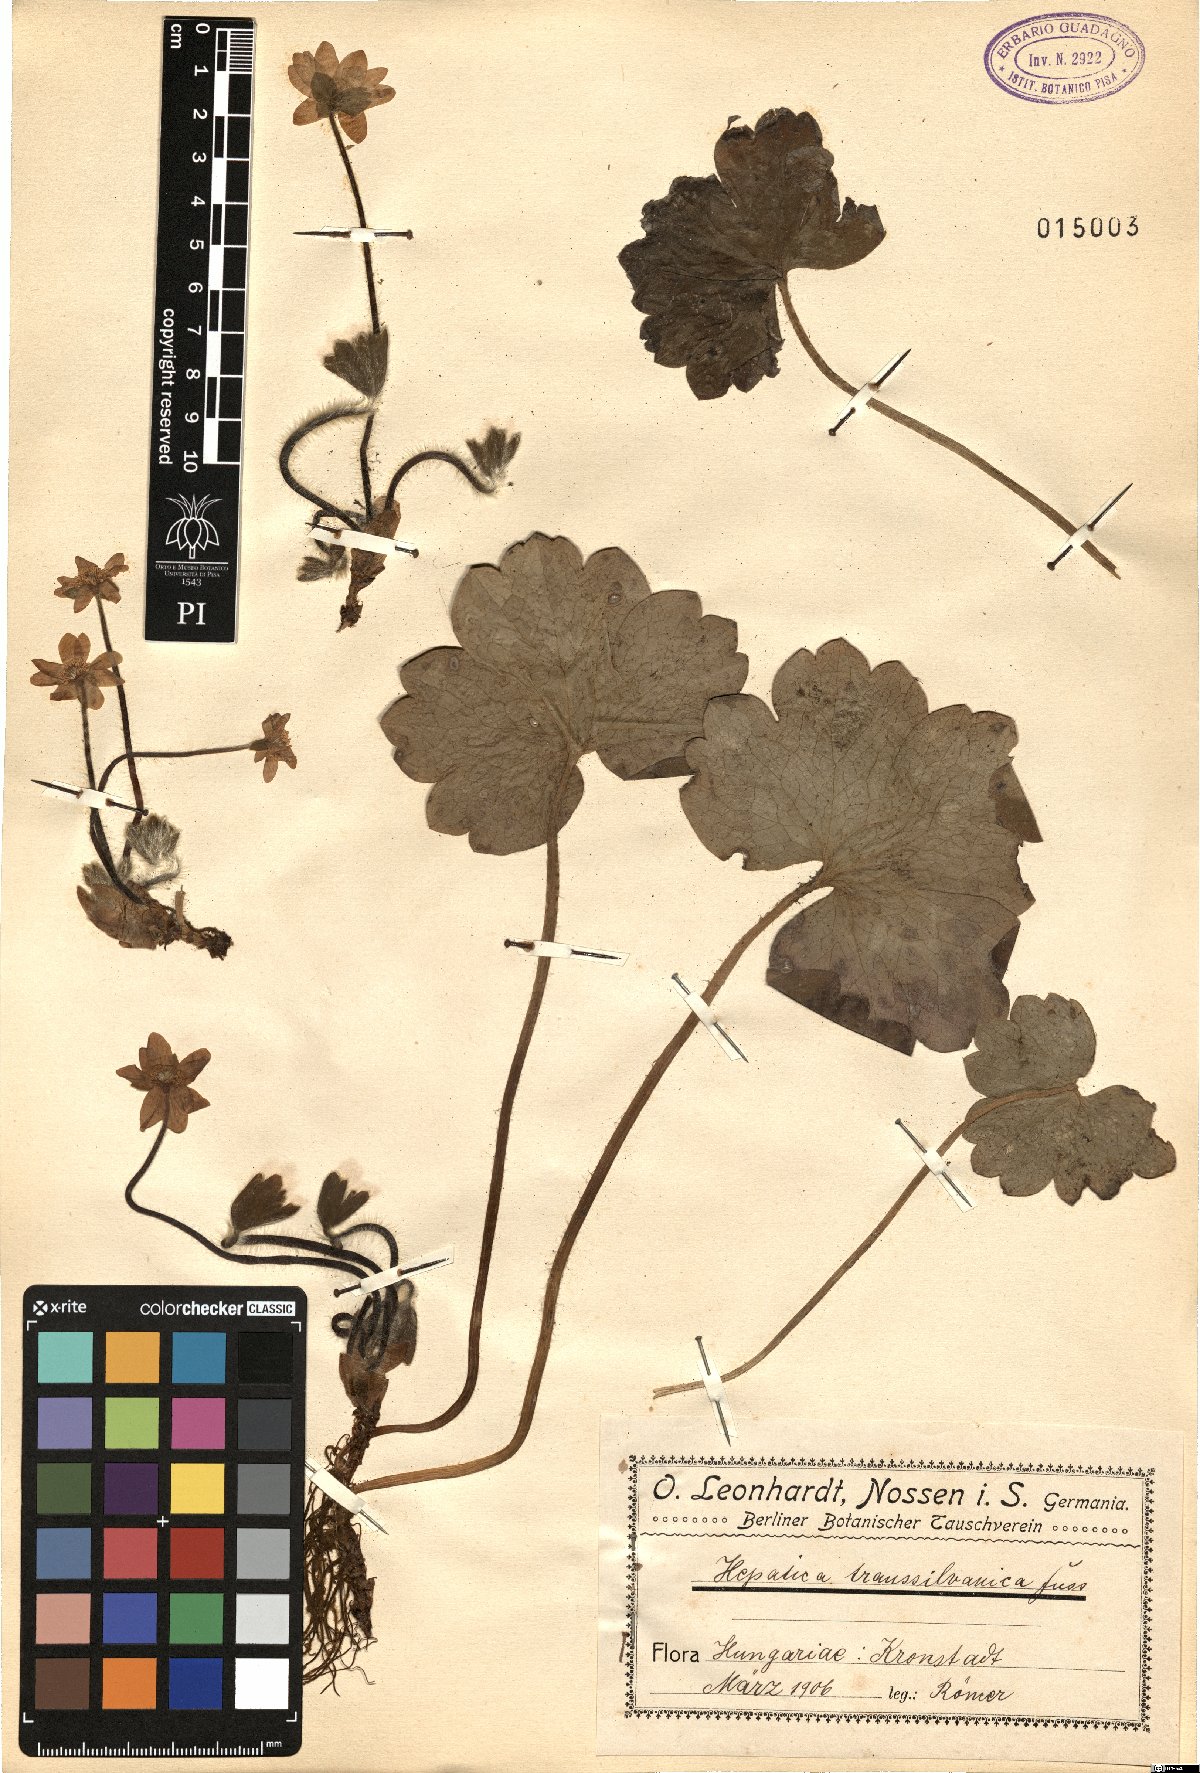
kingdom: Plantae
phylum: Tracheophyta
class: Magnoliopsida
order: Ranunculales
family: Ranunculaceae
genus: Hepatica
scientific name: Hepatica transsilvanica
